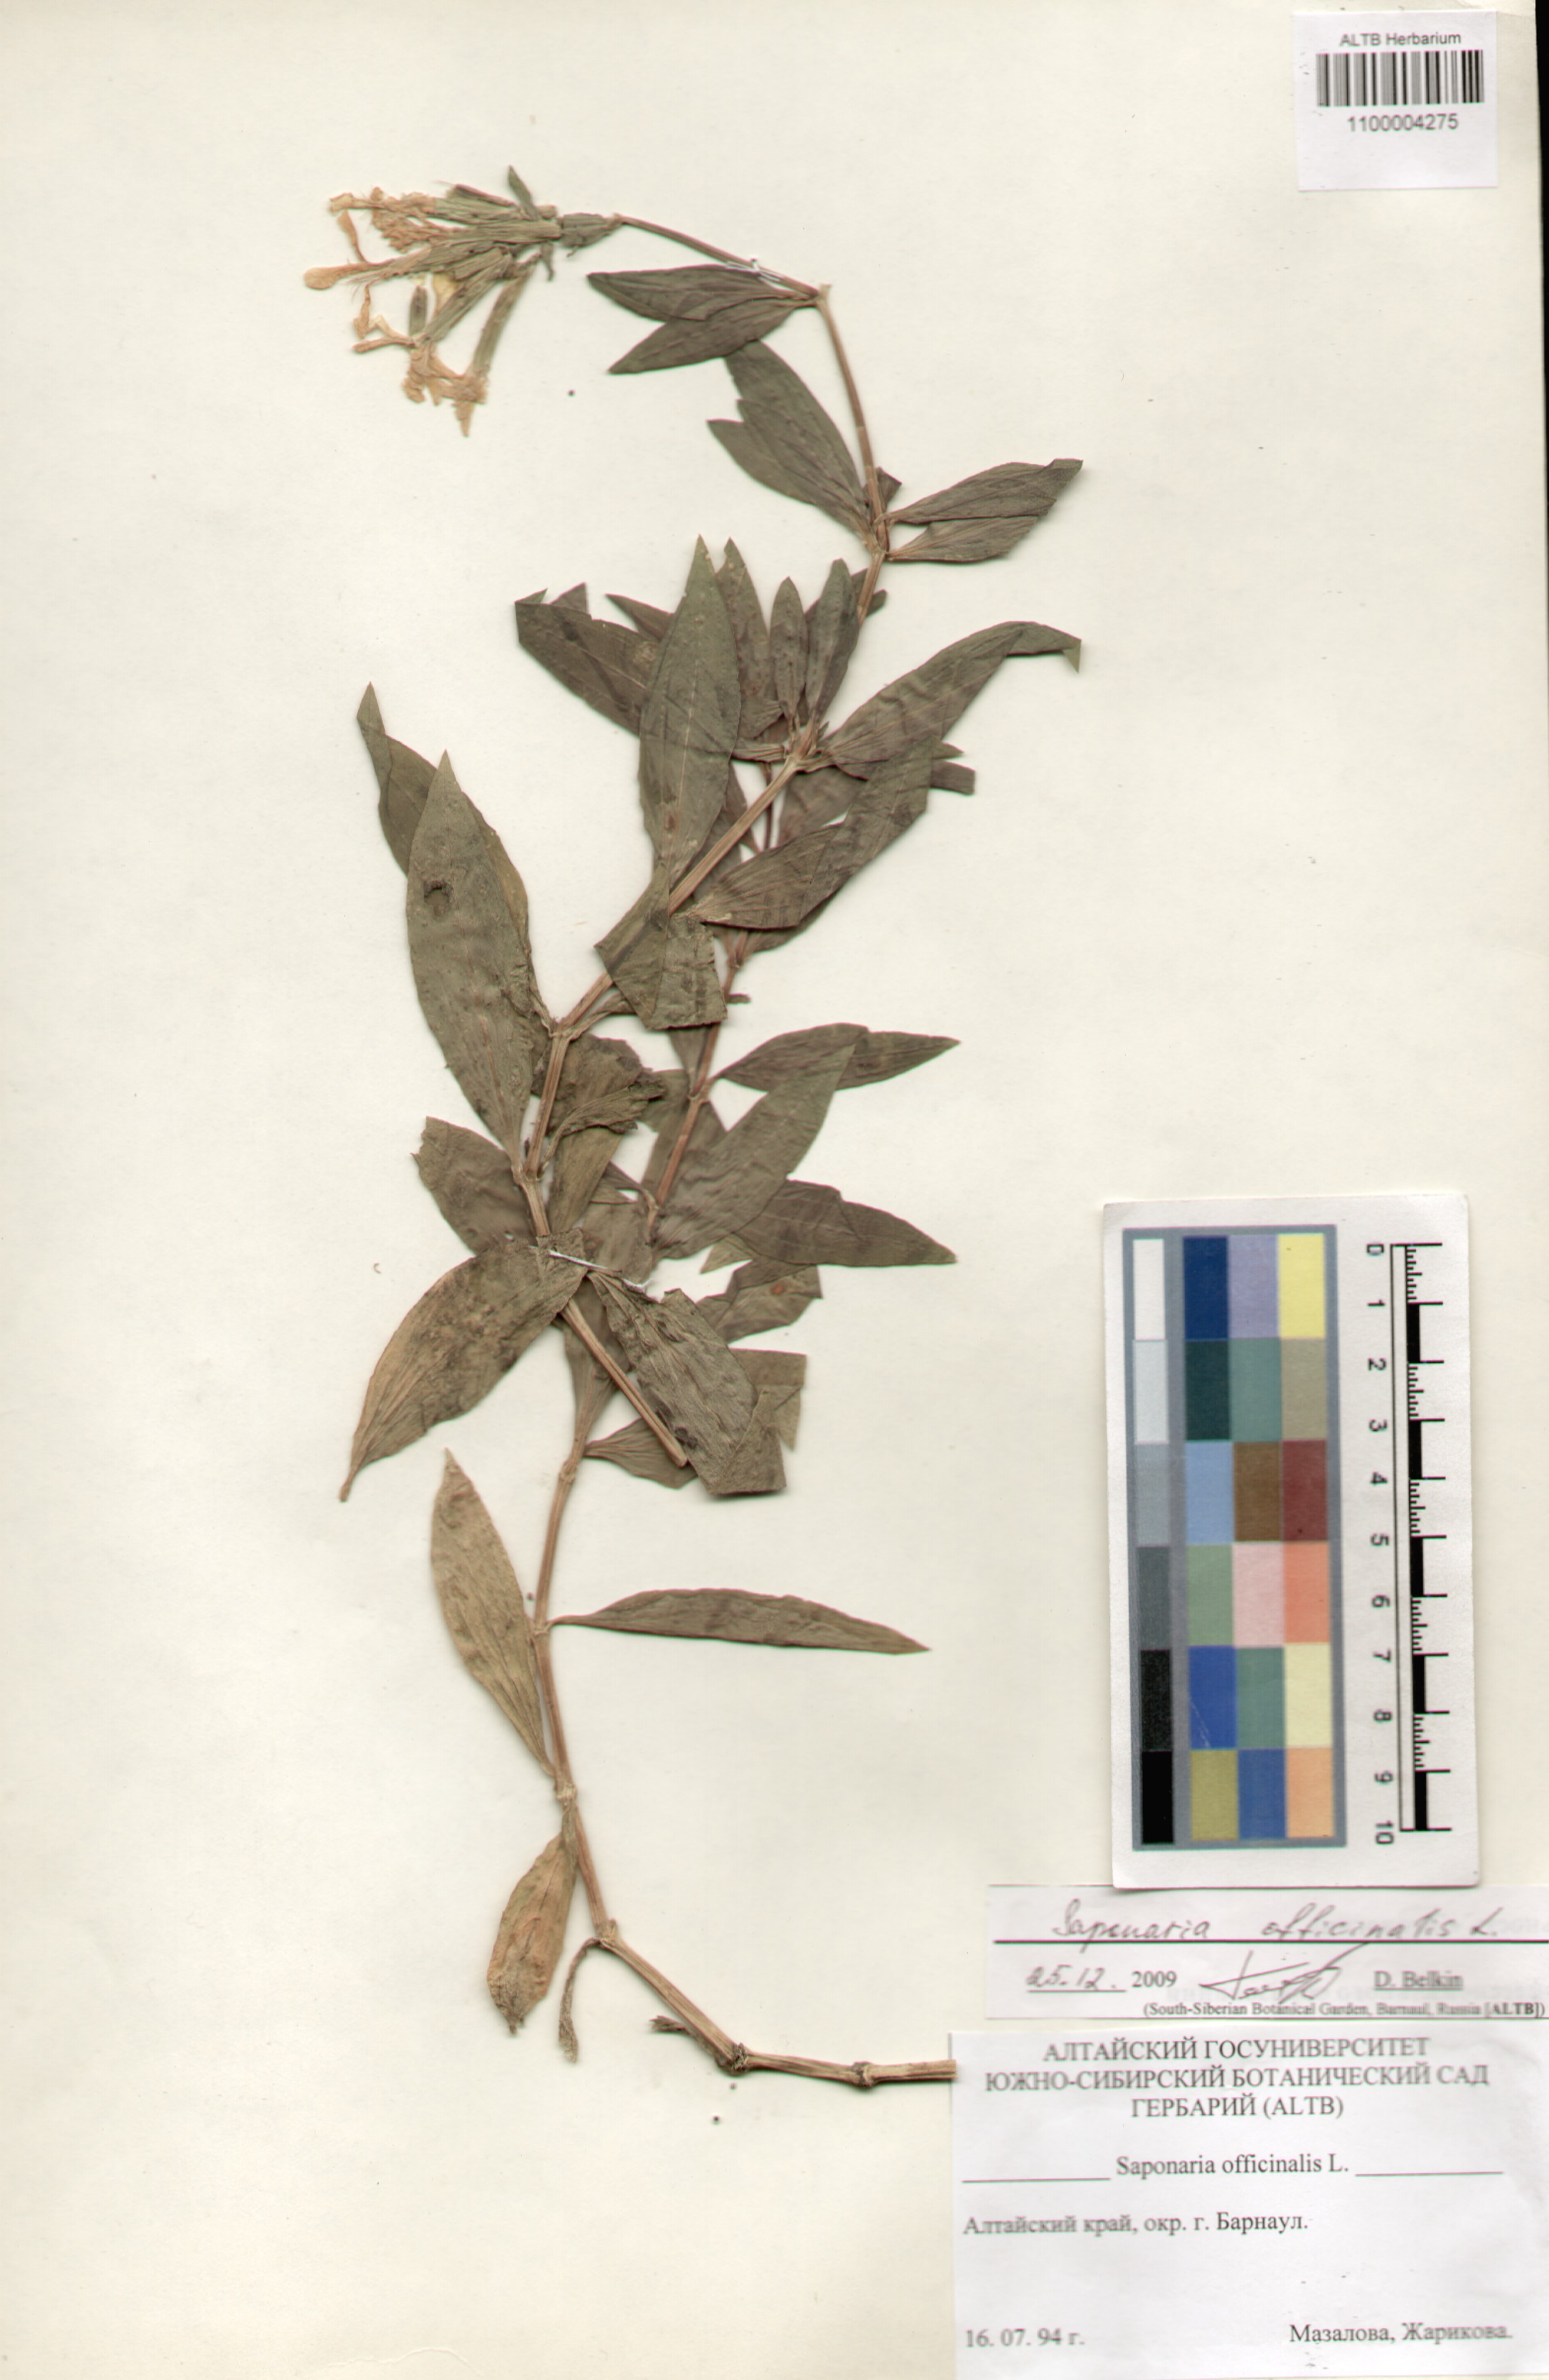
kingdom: Plantae
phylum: Tracheophyta
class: Magnoliopsida
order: Caryophyllales
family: Caryophyllaceae
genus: Saponaria
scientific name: Saponaria officinalis
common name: Soapwort
